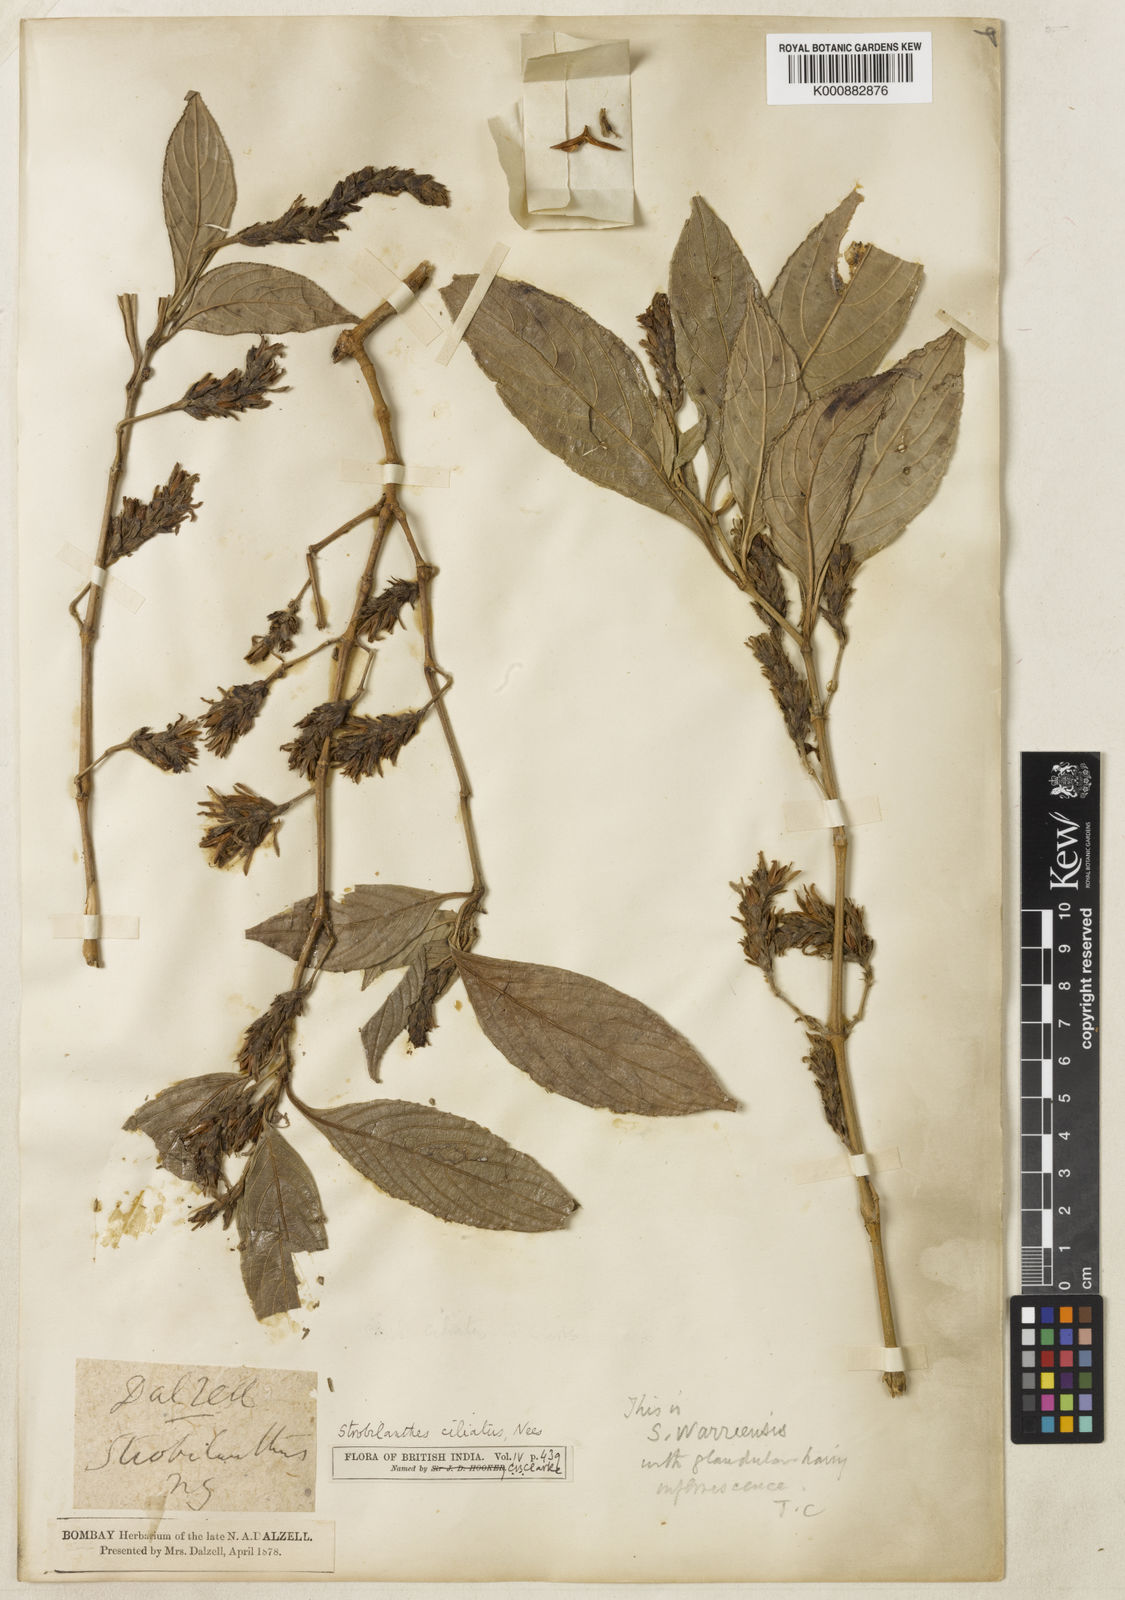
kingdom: Plantae
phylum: Tracheophyta
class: Magnoliopsida
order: Lamiales
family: Acanthaceae
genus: Strobilanthes
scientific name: Strobilanthes ciliata
